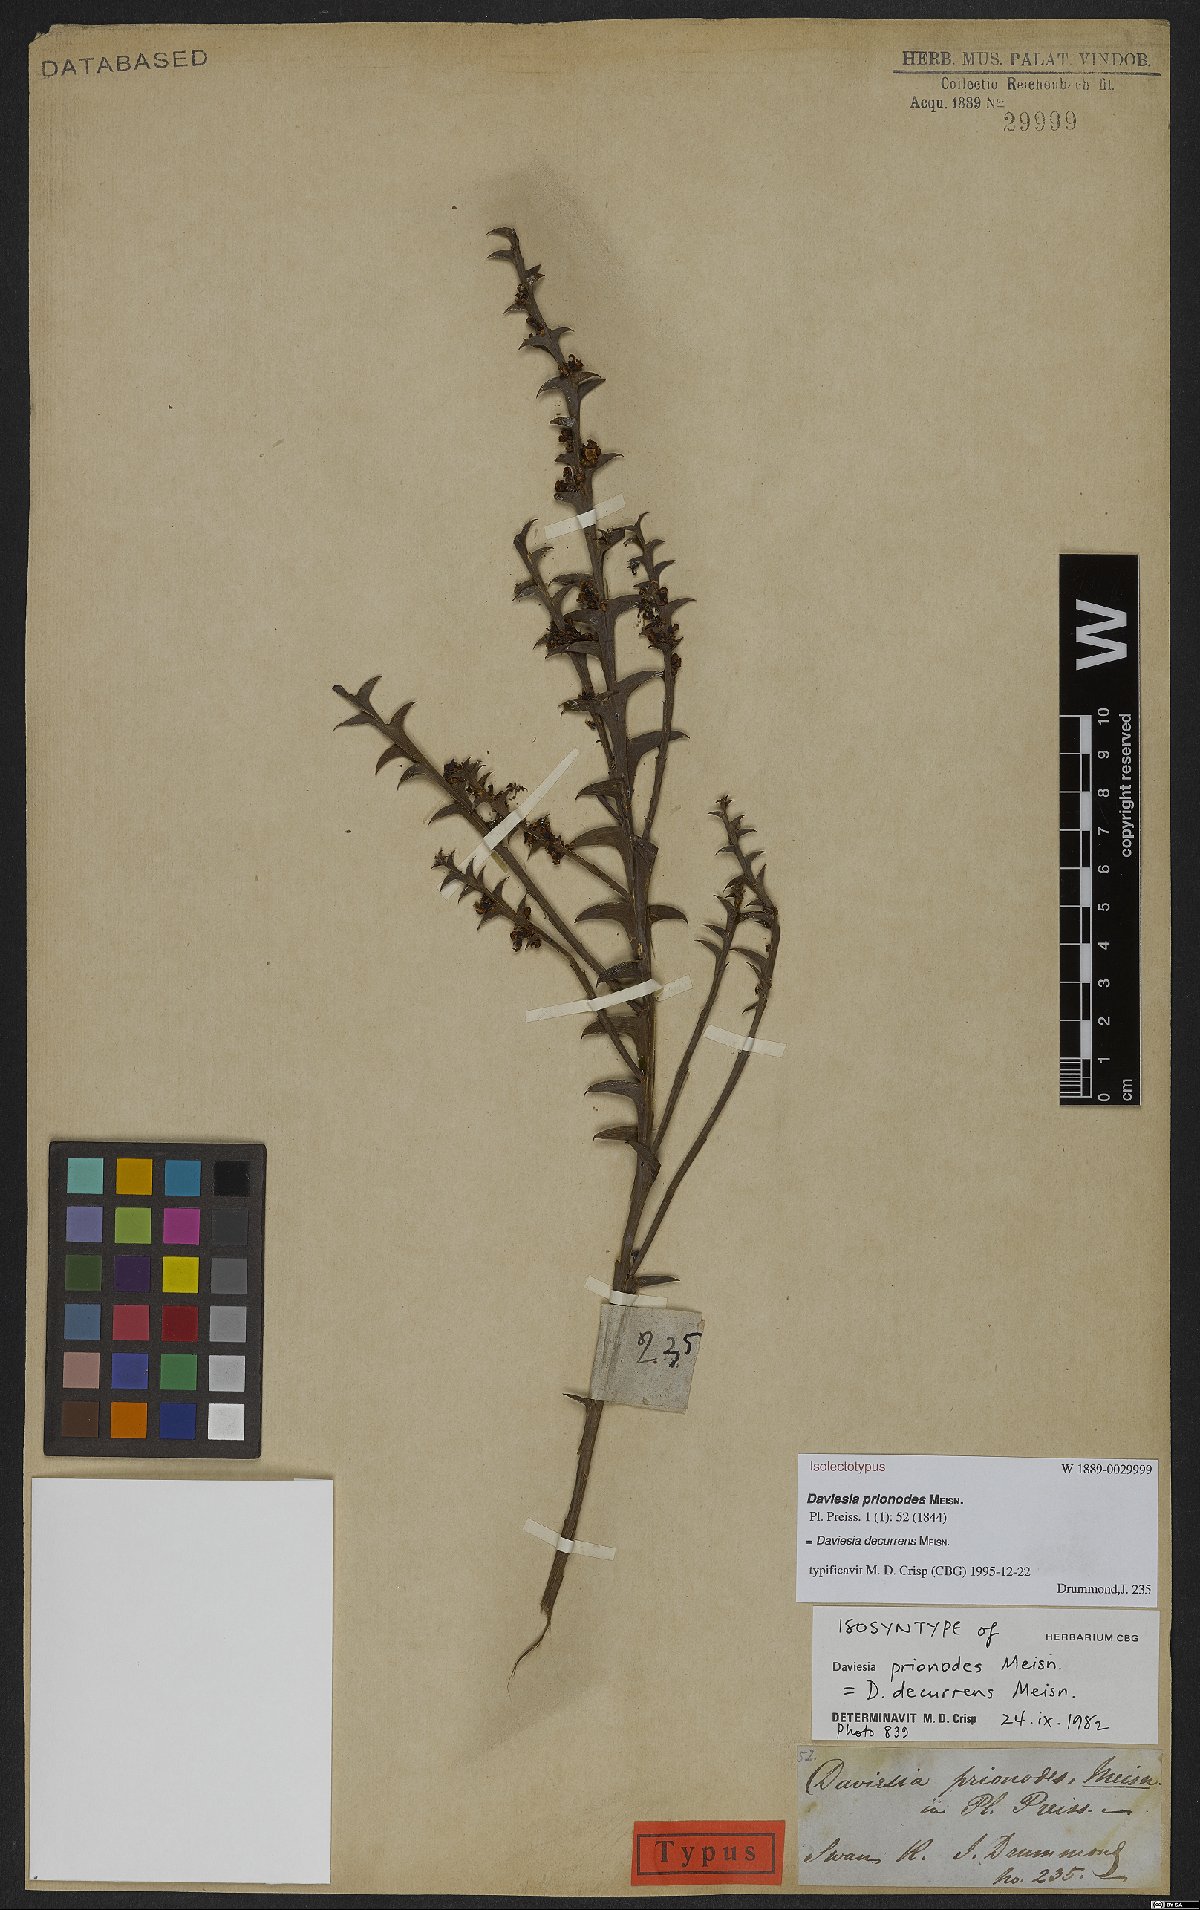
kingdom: Plantae
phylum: Tracheophyta
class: Magnoliopsida
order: Fabales
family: Fabaceae
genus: Daviesia
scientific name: Daviesia decurrens
